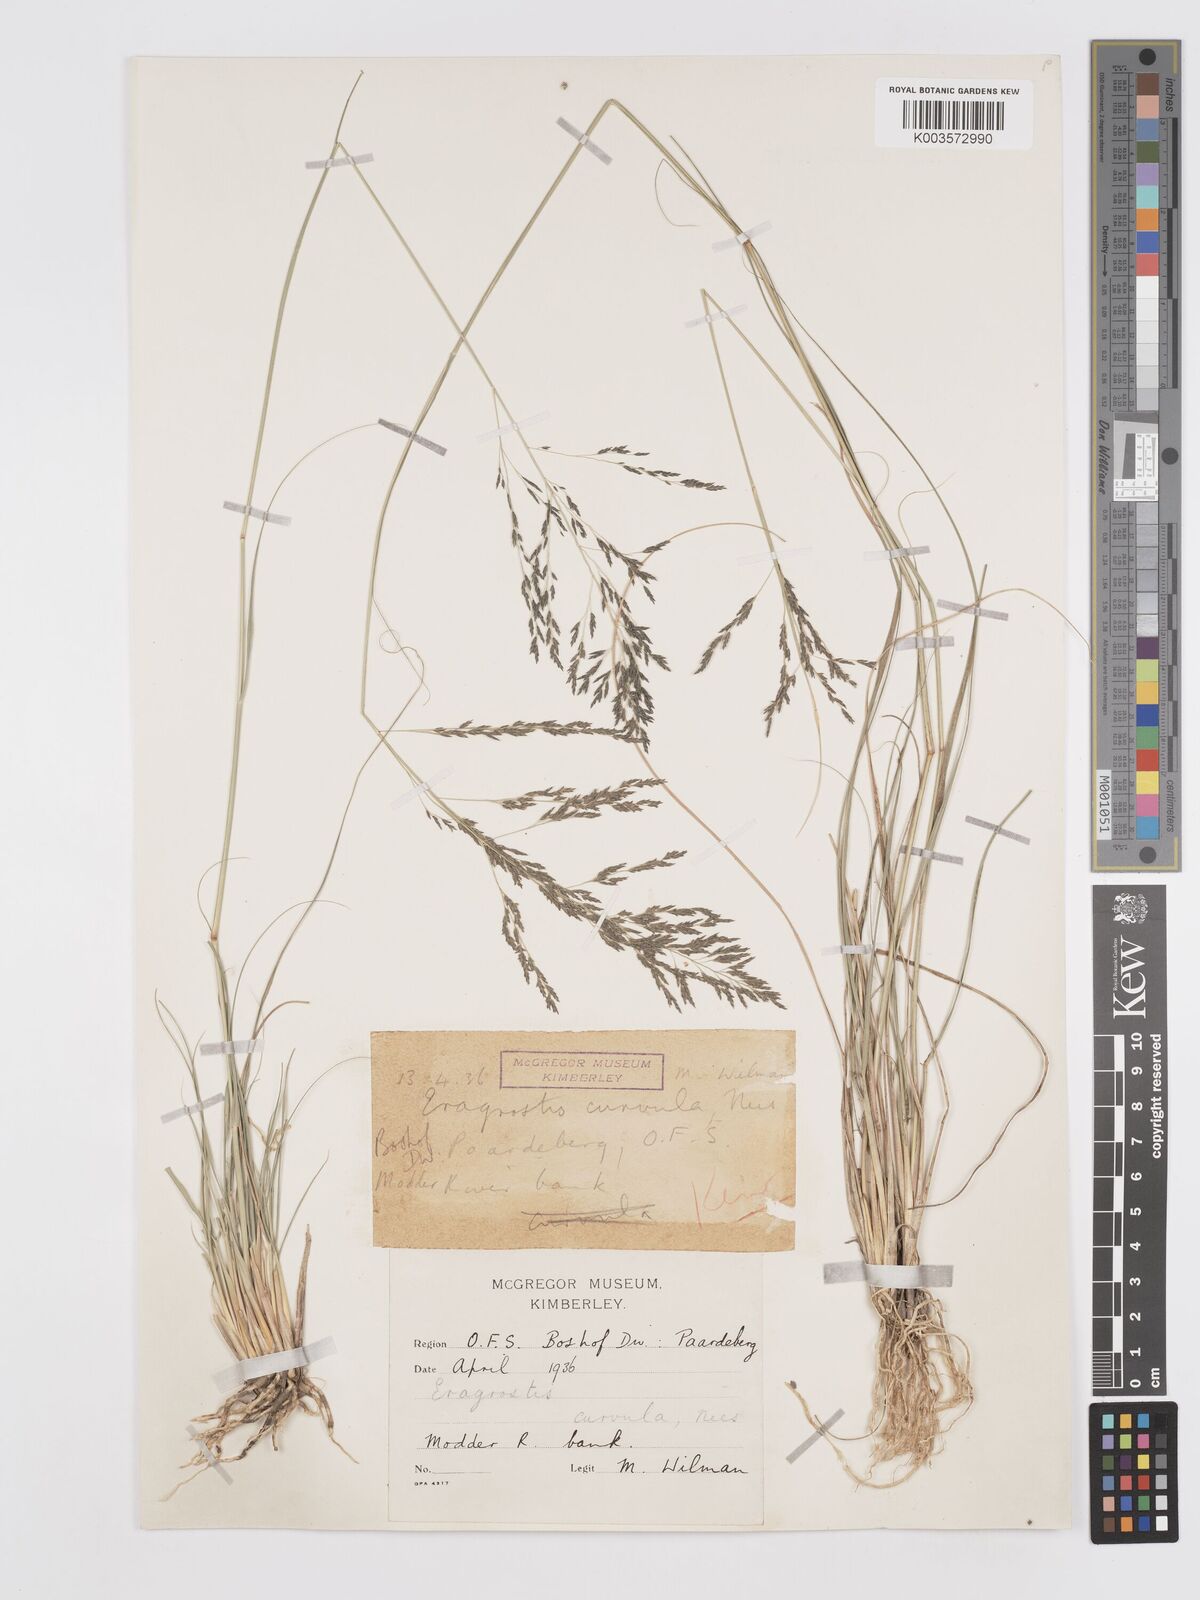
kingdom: Plantae
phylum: Tracheophyta
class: Liliopsida
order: Poales
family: Poaceae
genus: Eragrostis
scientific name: Eragrostis curvula
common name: African love-grass
